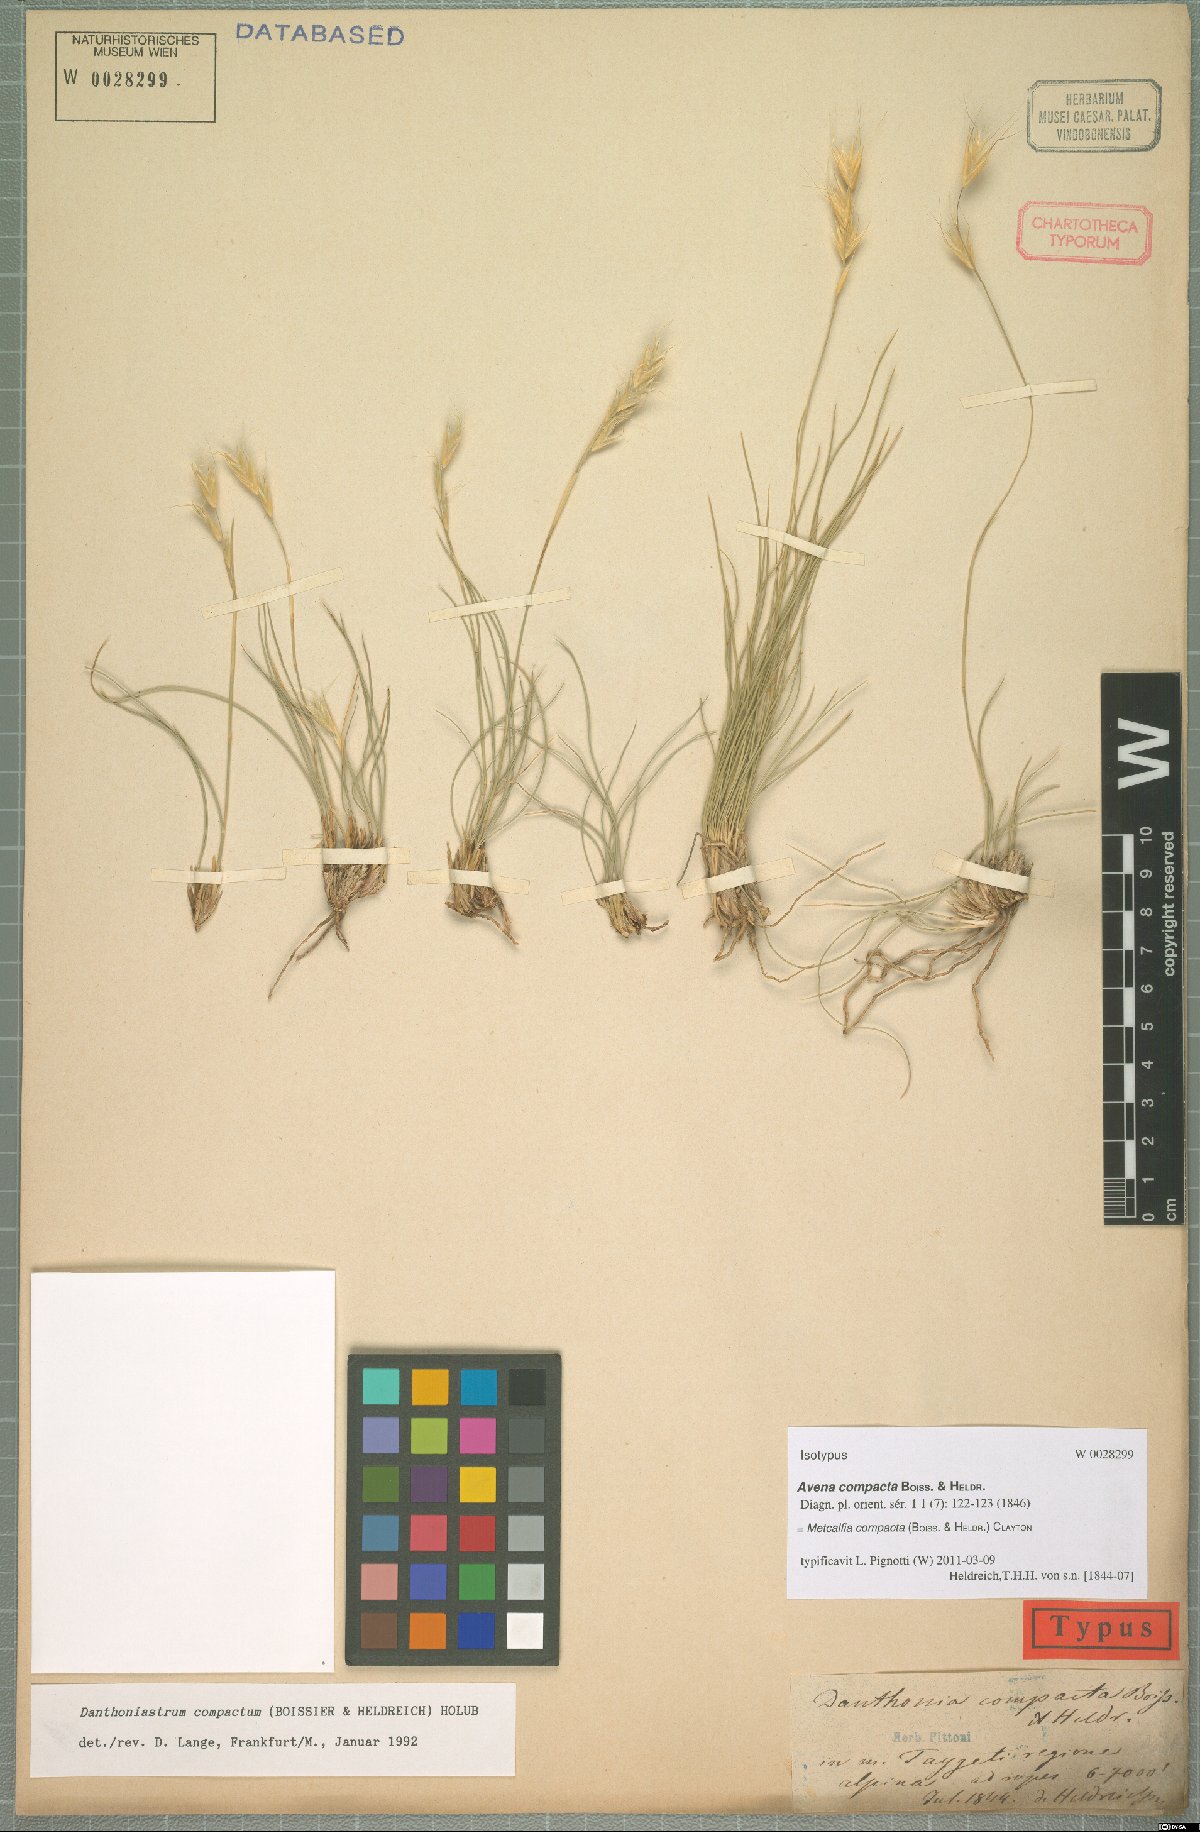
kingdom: Plantae
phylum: Tracheophyta
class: Liliopsida
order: Poales
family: Poaceae
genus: Danthoniastrum
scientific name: Danthoniastrum compactum
